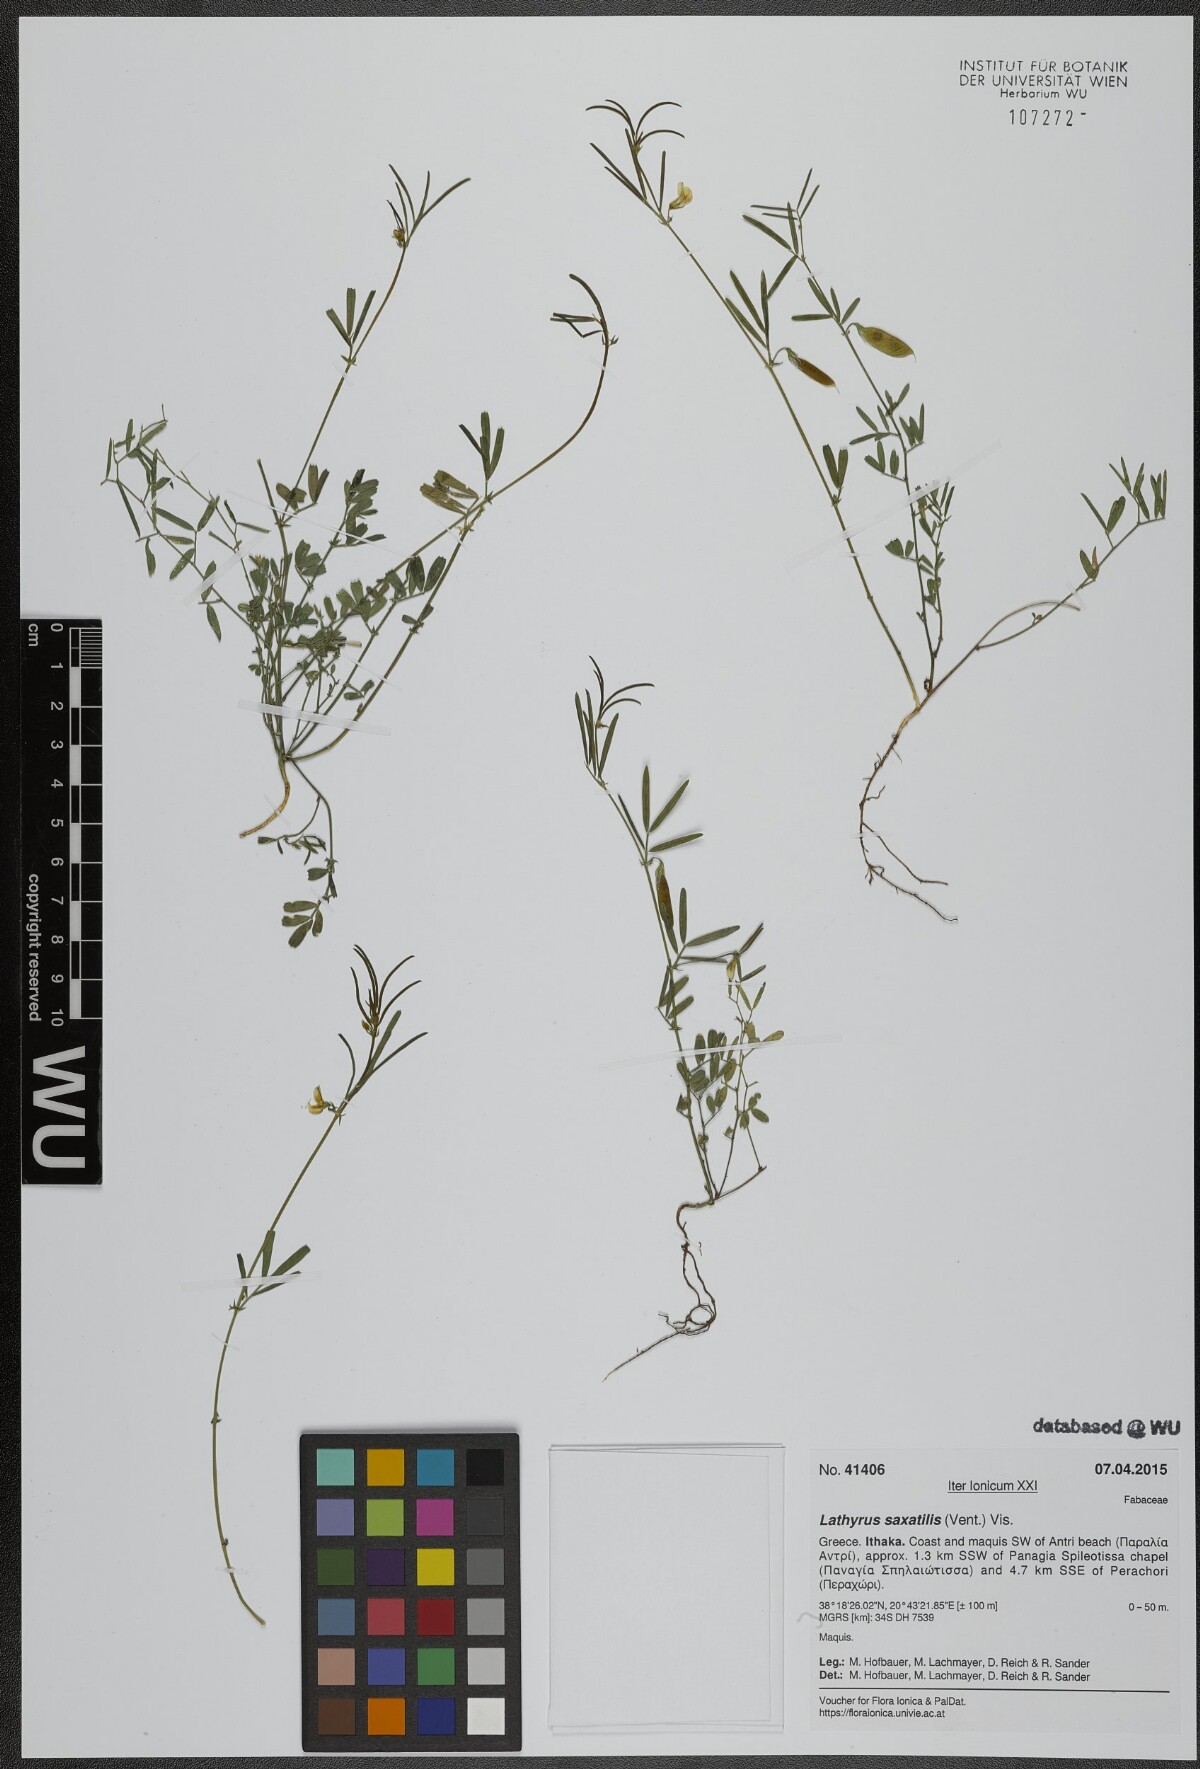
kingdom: Plantae
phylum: Tracheophyta
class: Magnoliopsida
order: Fabales
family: Fabaceae
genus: Lathyrus
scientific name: Lathyrus saxatilis
